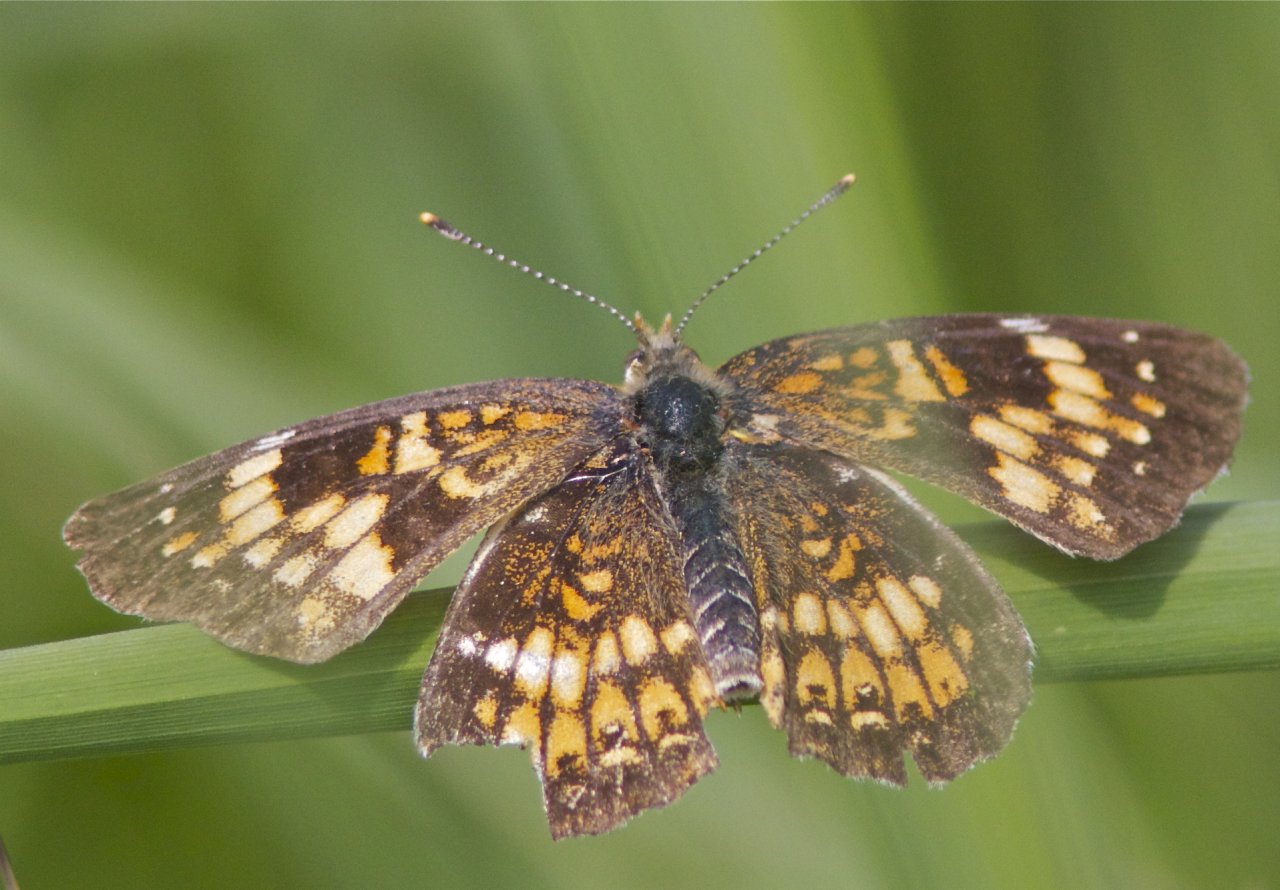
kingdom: Animalia
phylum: Arthropoda
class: Insecta
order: Lepidoptera
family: Nymphalidae
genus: Chlosyne
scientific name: Chlosyne harrisii
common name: Harris's Checkerspot
